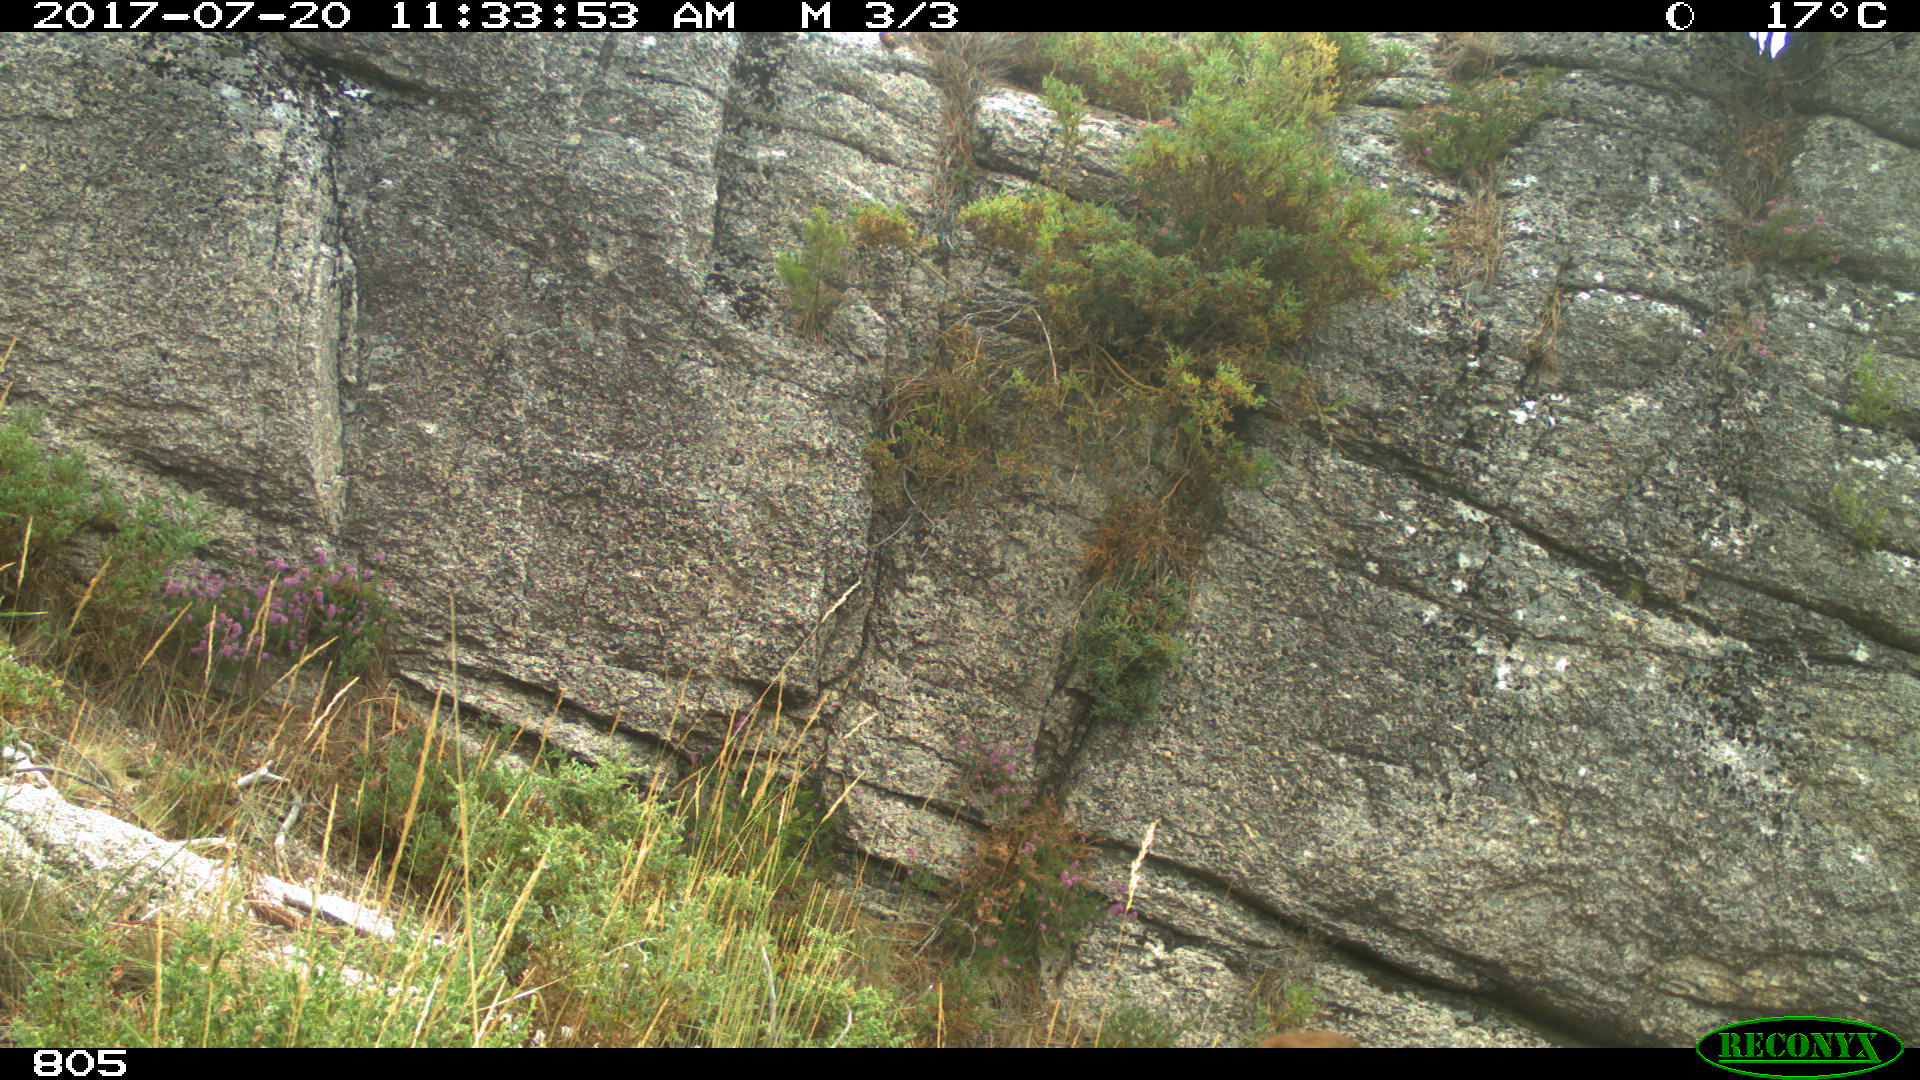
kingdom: Animalia
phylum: Chordata
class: Mammalia
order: Artiodactyla
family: Cervidae
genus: Capreolus
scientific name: Capreolus capreolus
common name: Western roe deer
